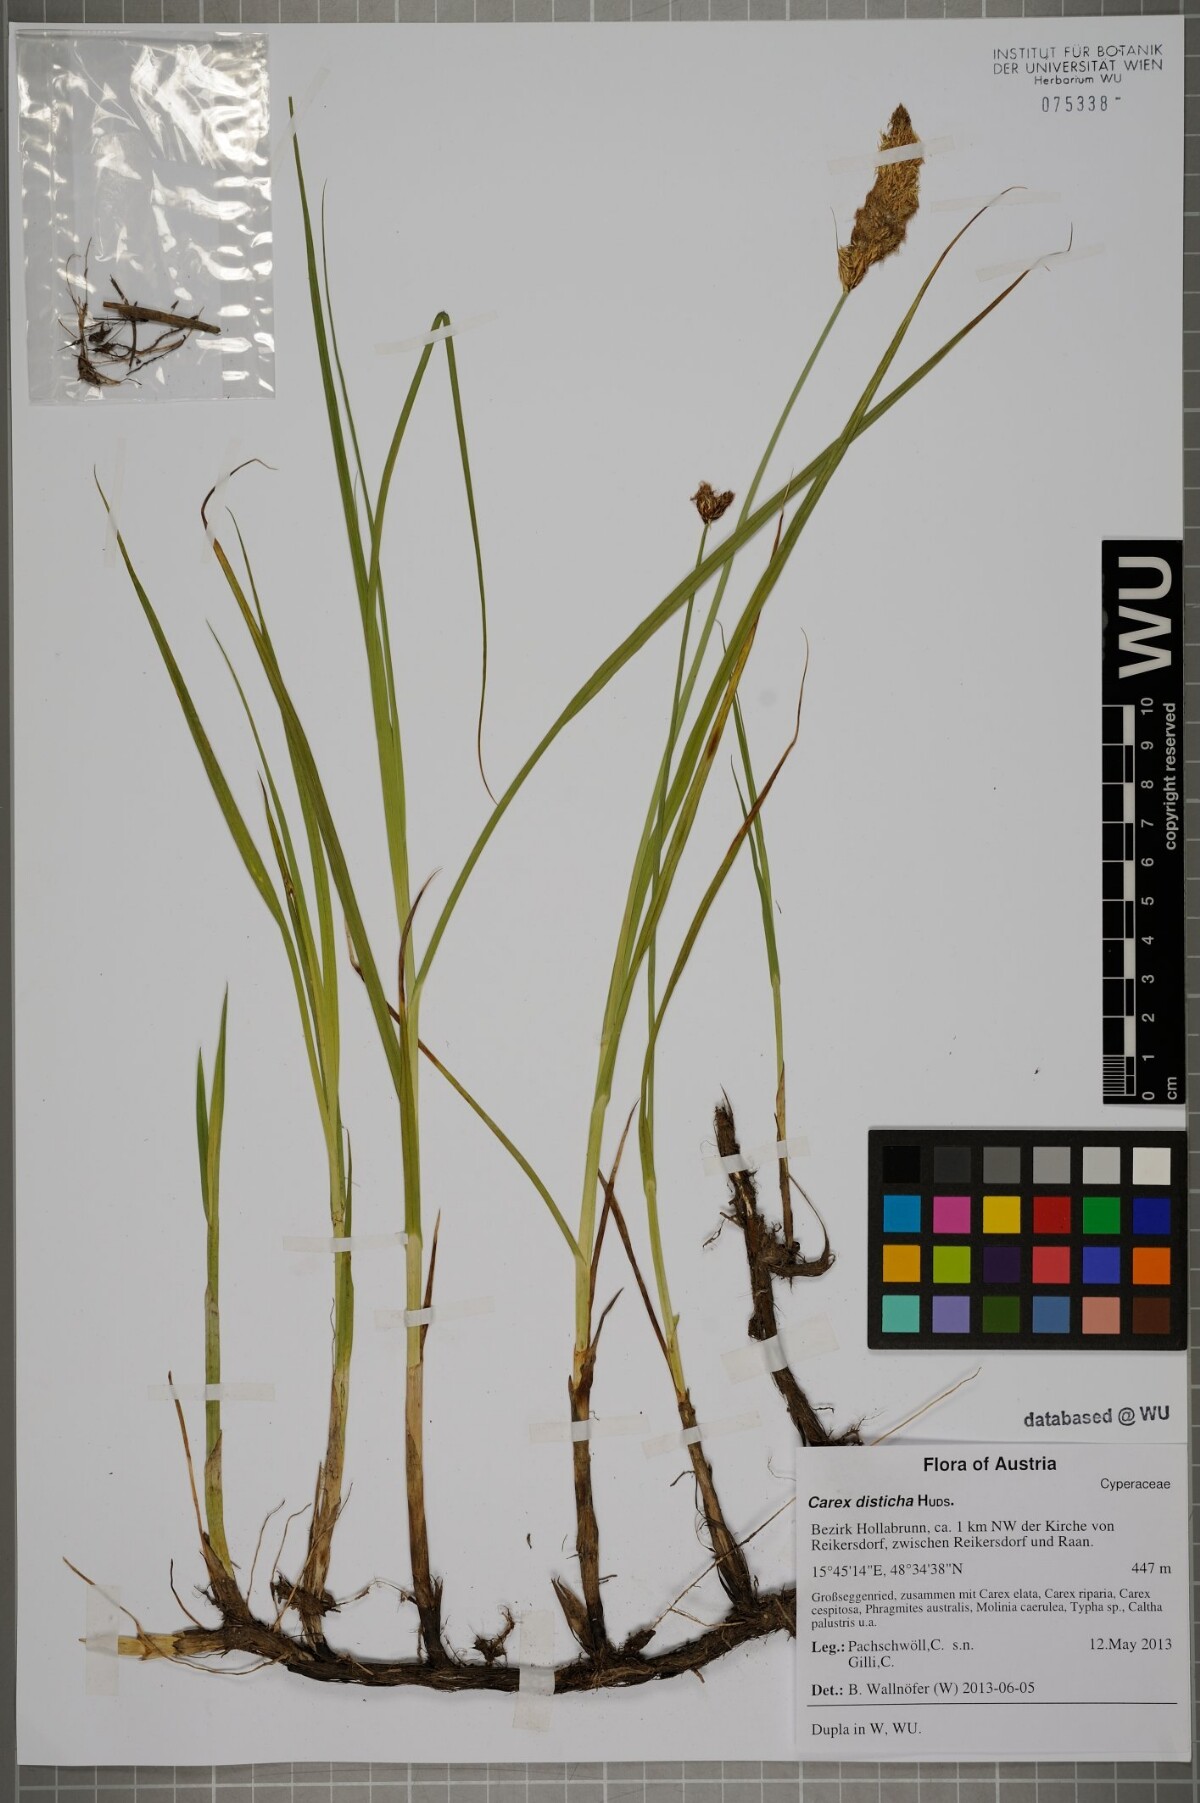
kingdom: Plantae
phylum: Tracheophyta
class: Liliopsida
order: Poales
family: Cyperaceae
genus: Carex
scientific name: Carex disticha
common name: Brown sedge
